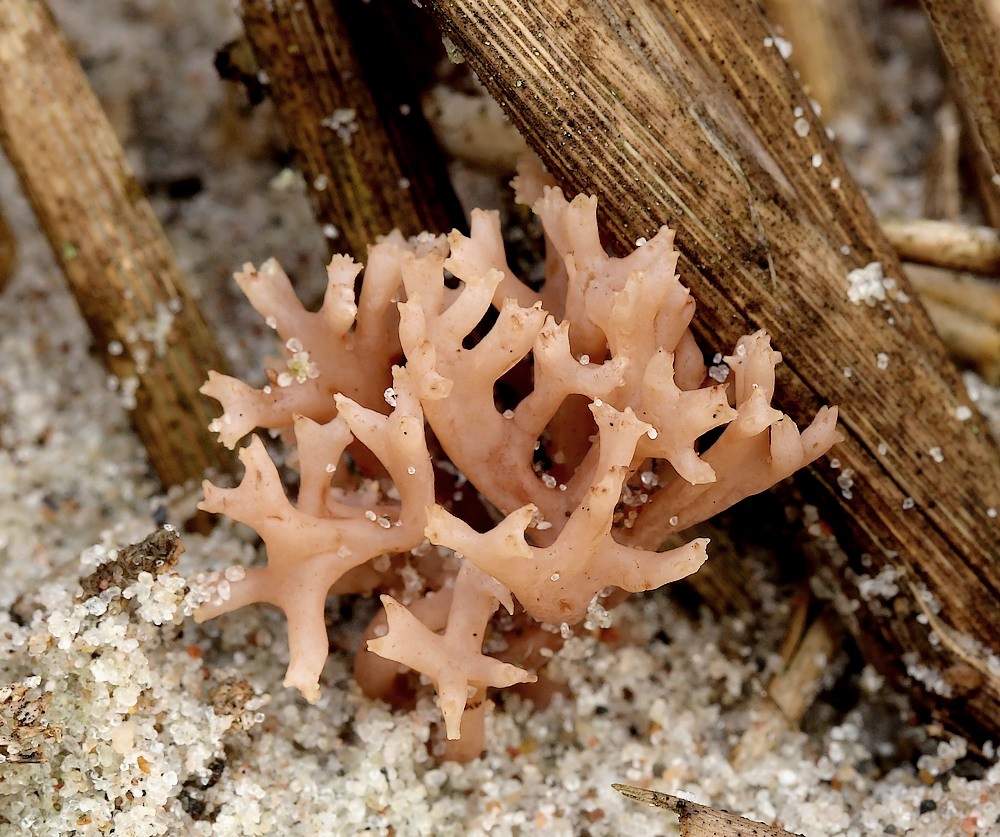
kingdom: Fungi
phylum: Basidiomycota
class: Agaricomycetes
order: Gomphales
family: Gomphaceae
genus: Ramaria
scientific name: Ramaria ammophila
